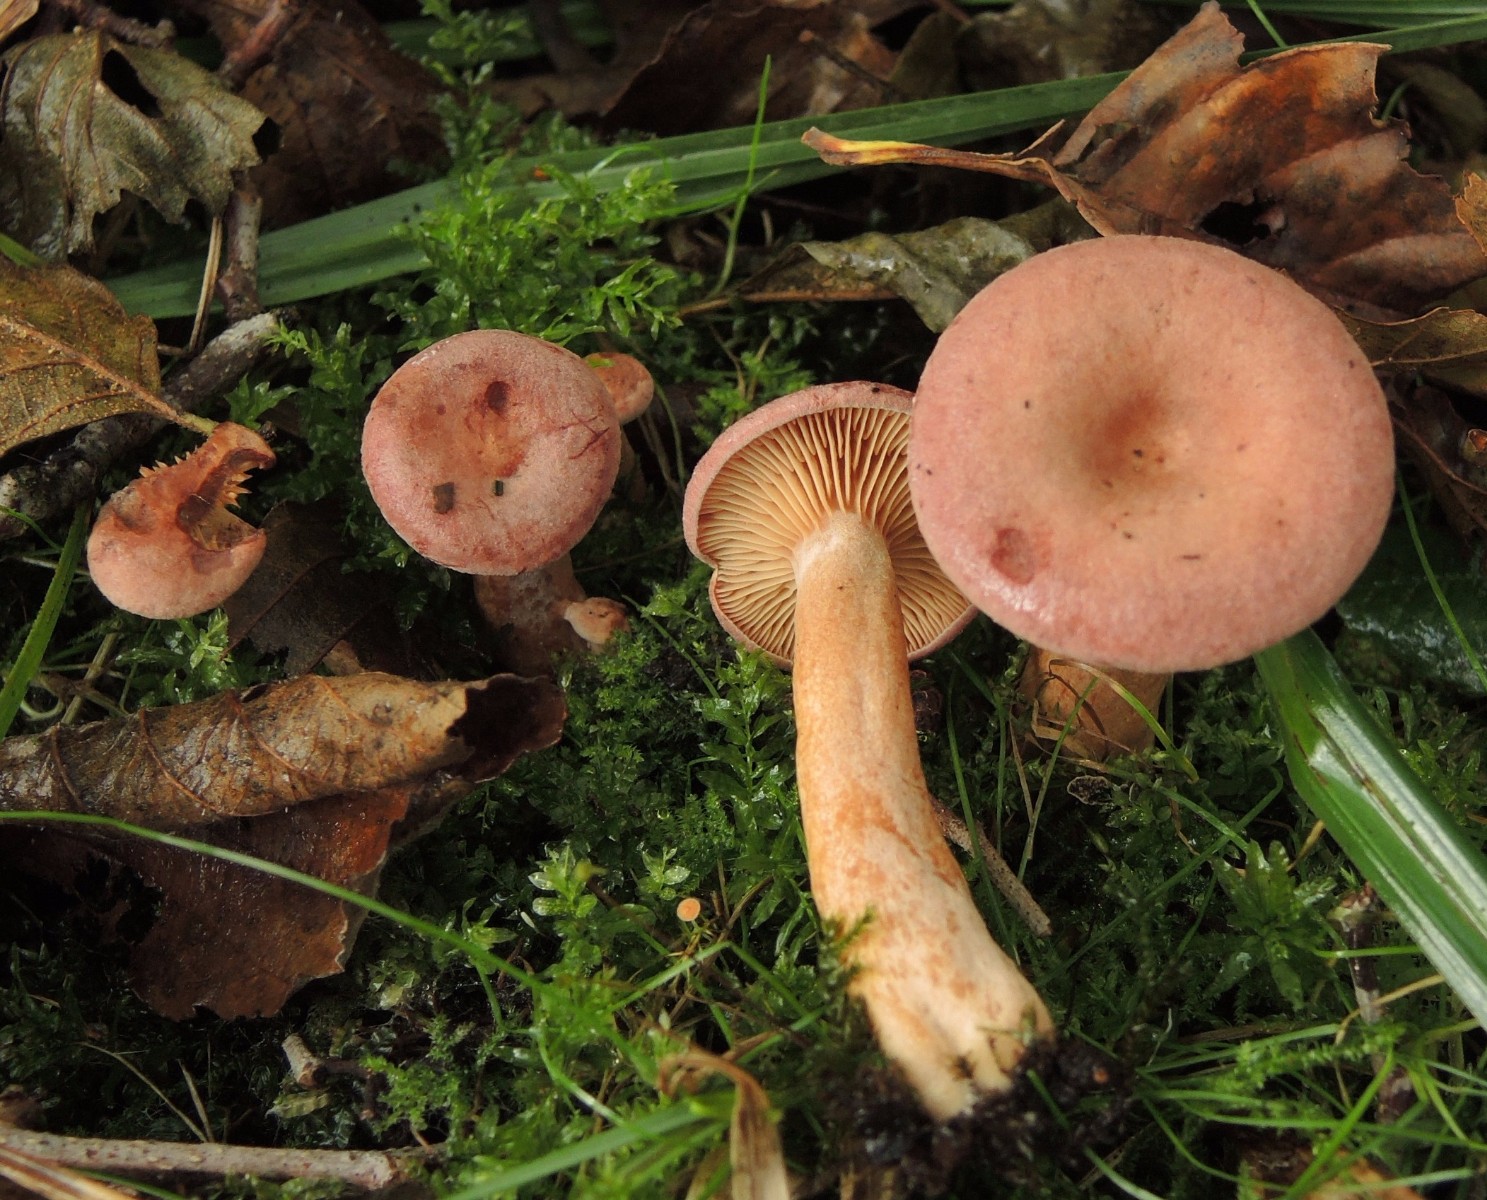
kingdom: Fungi
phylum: Basidiomycota
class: Agaricomycetes
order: Russulales
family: Russulaceae
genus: Lactarius
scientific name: Lactarius lilacinus
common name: lilla mælkehat
